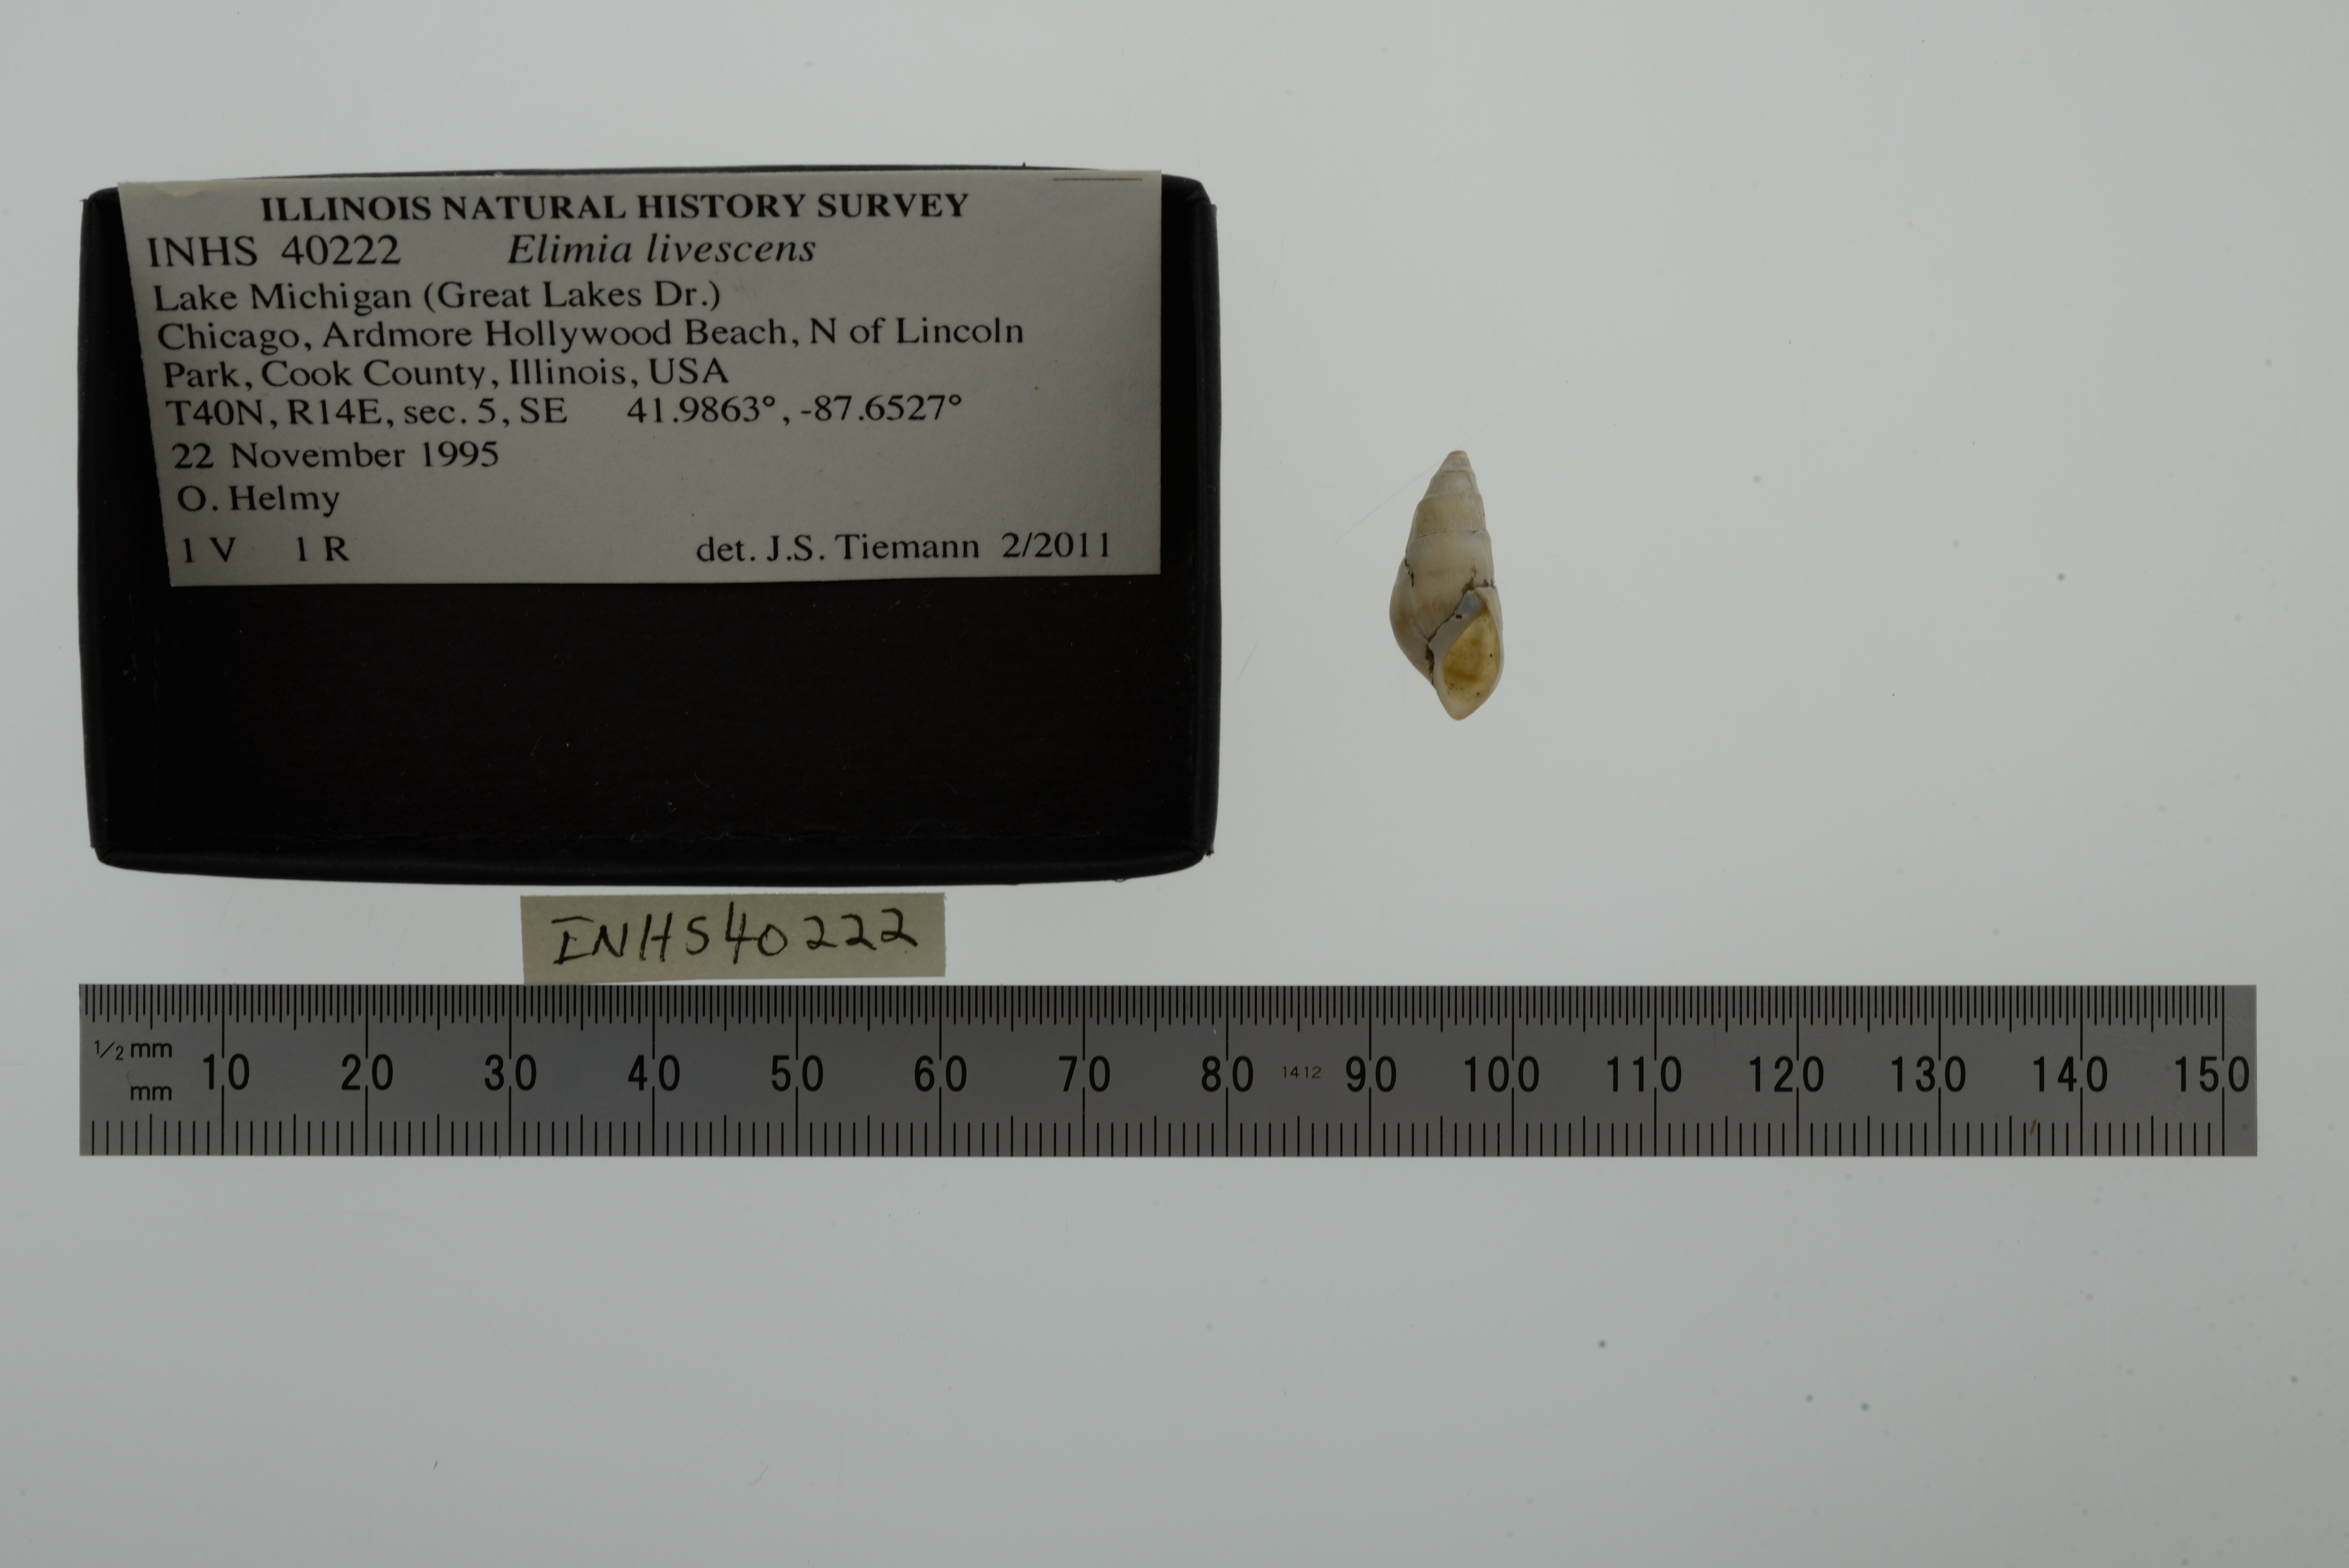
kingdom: Animalia
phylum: Mollusca
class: Gastropoda
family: Pleuroceridae
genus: Elimia
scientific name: Elimia livescens
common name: Liver elimia
